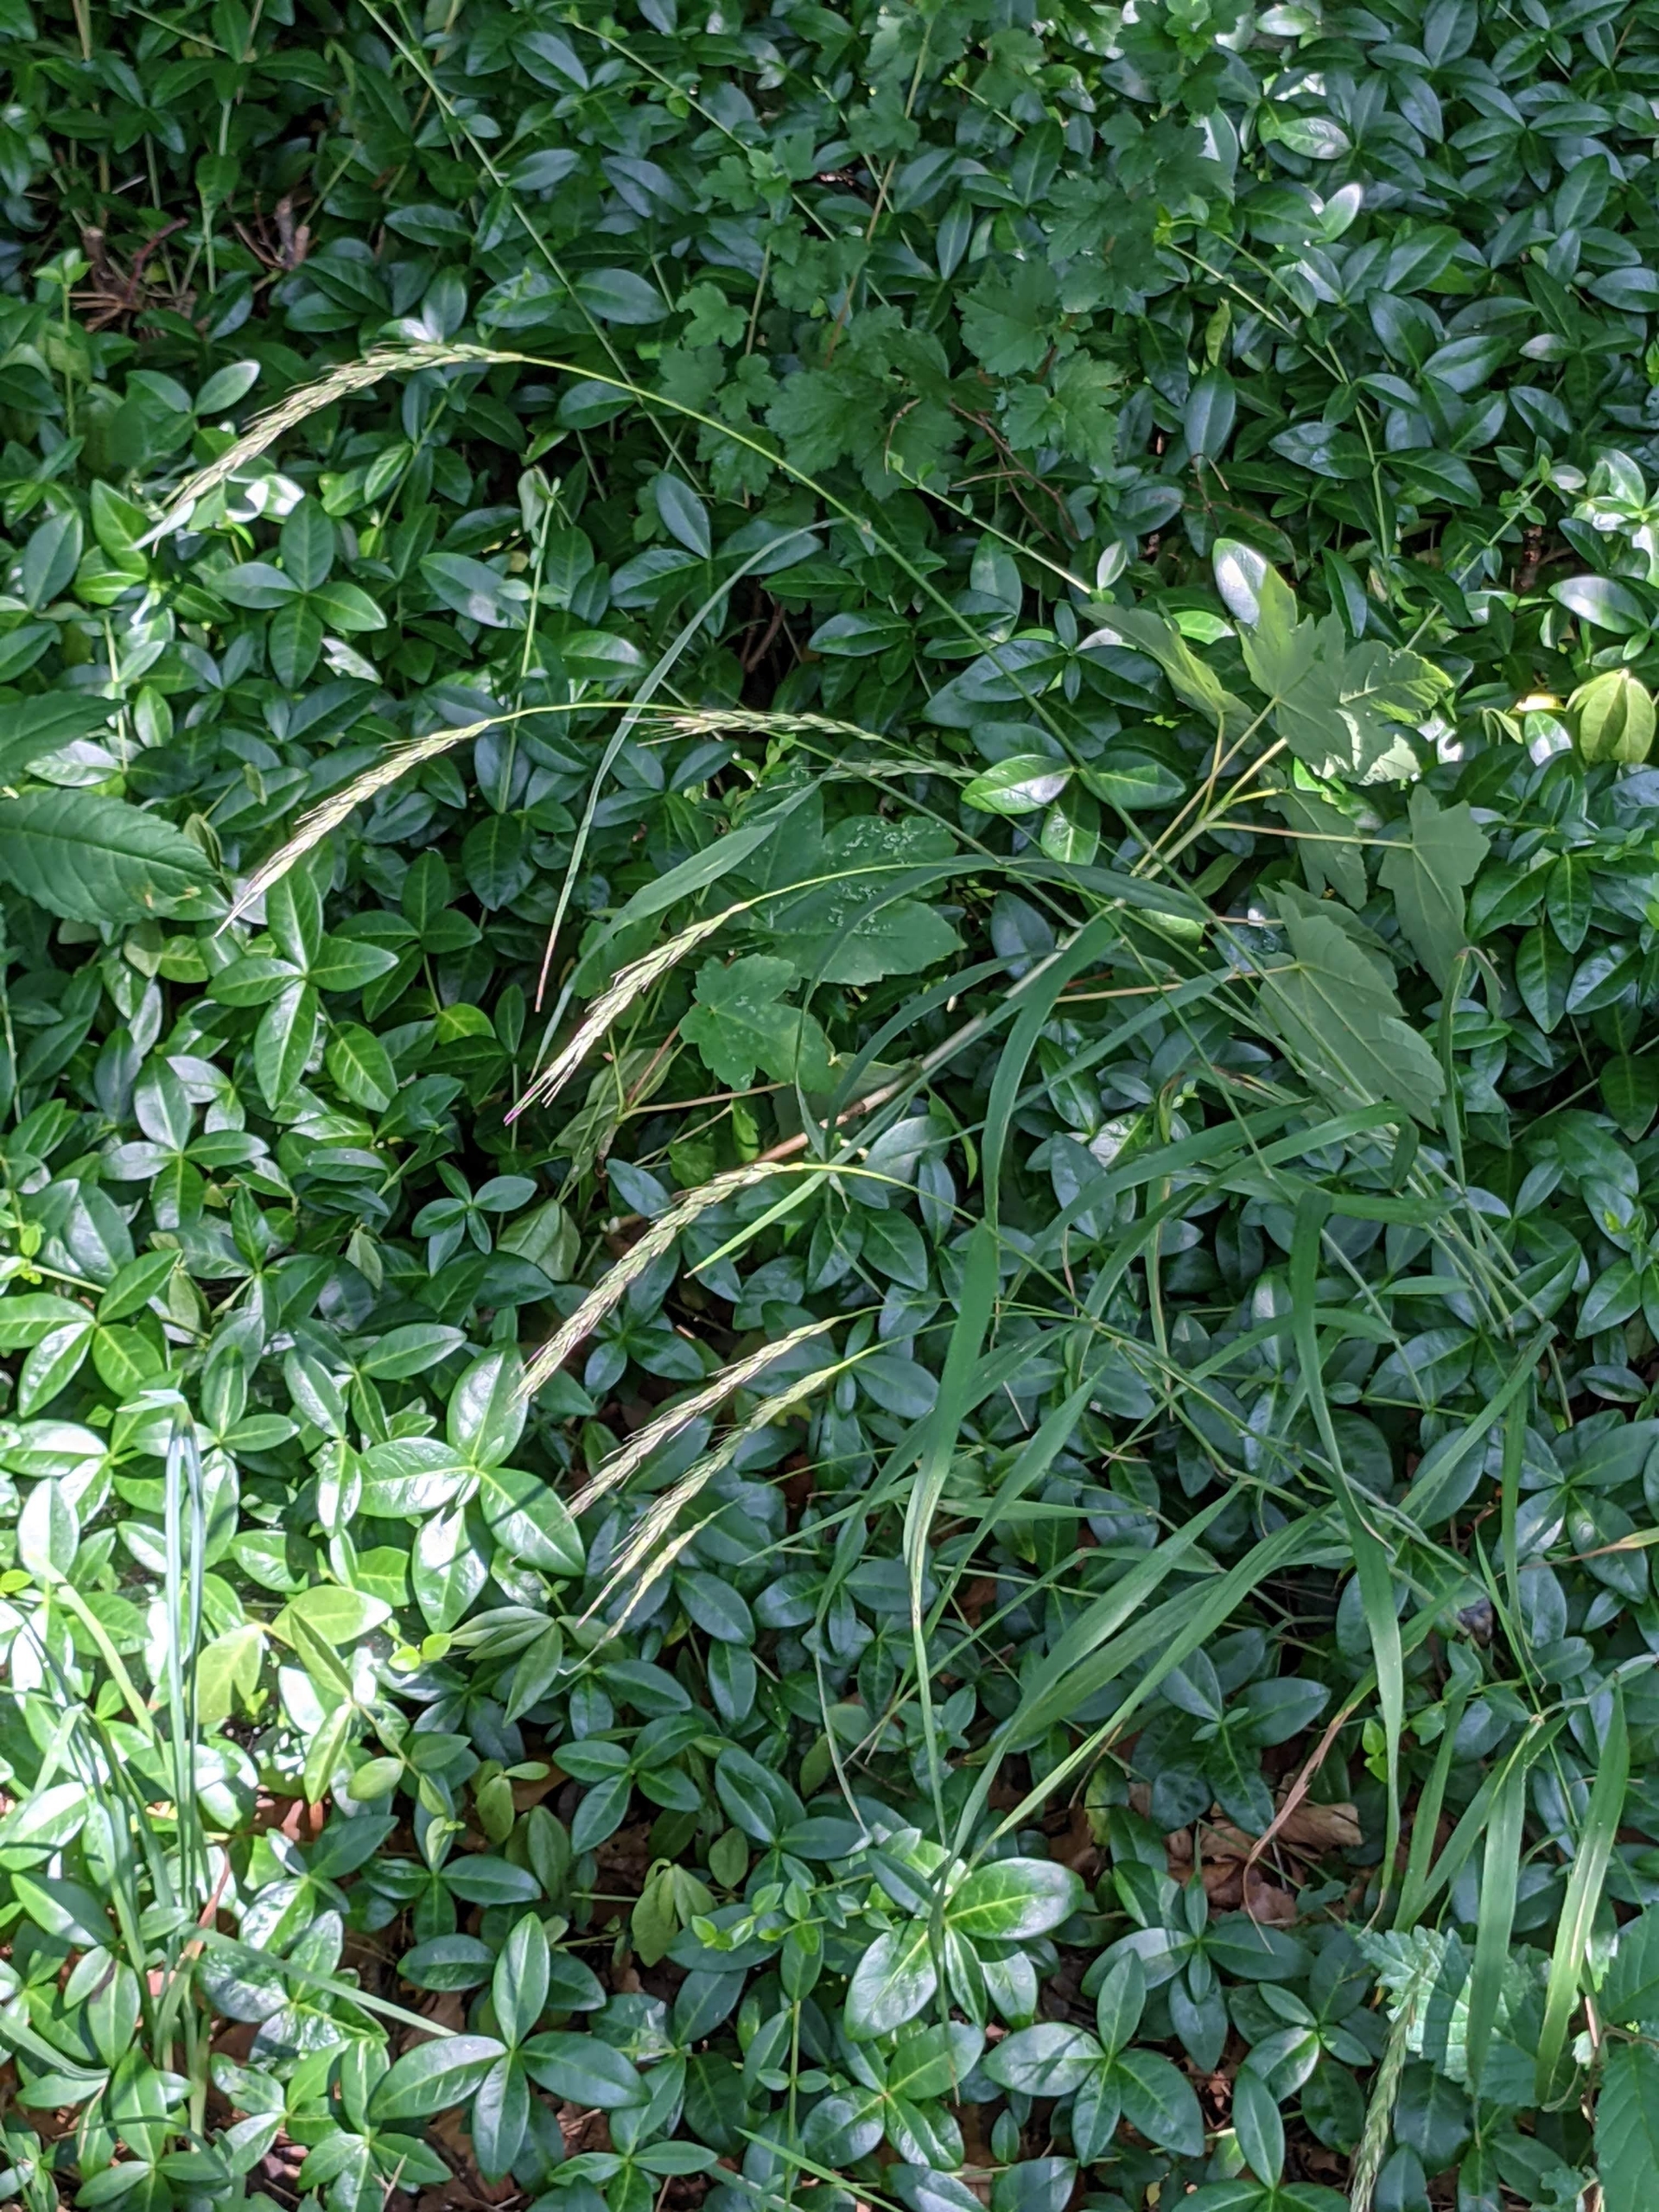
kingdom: Plantae
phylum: Tracheophyta
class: Liliopsida
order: Poales
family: Poaceae
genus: Elymus
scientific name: Elymus caninus
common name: Hundekvik
